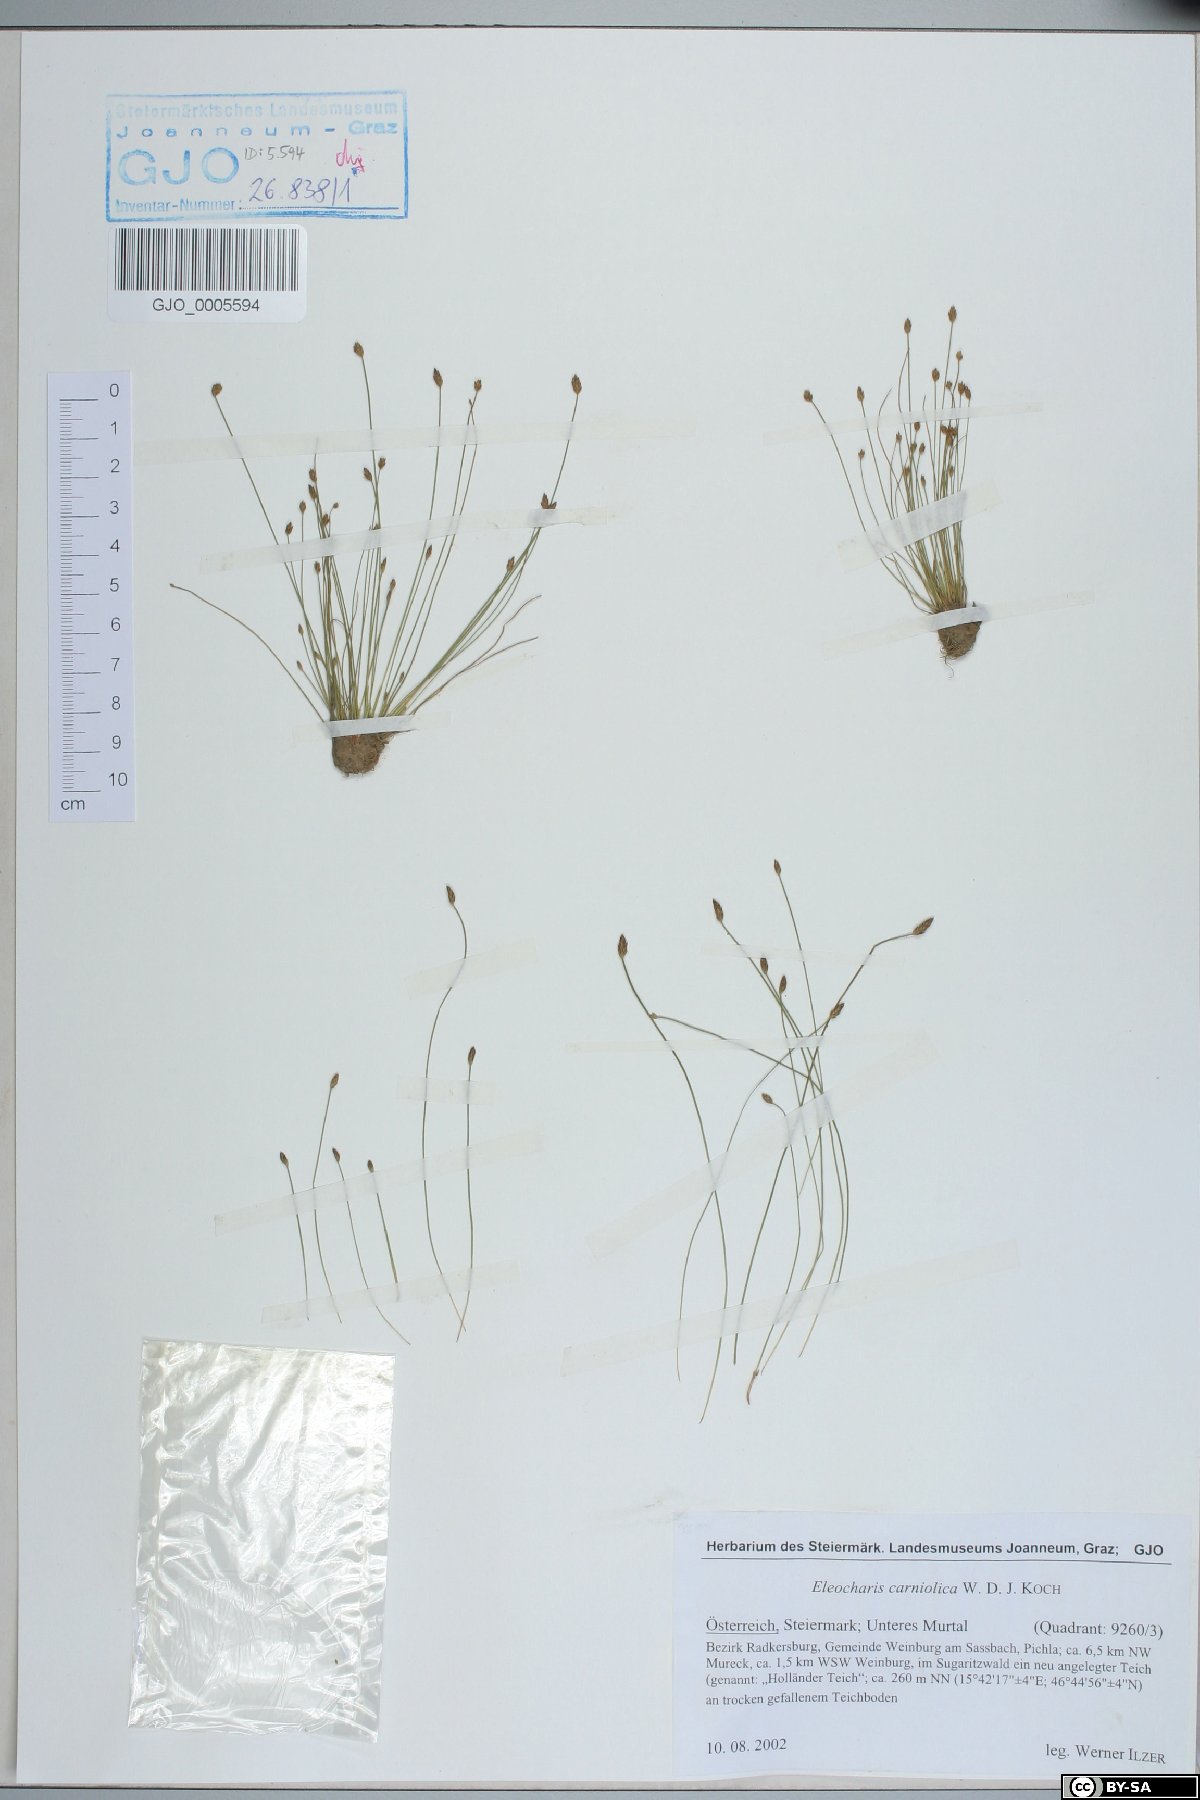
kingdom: Plantae
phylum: Tracheophyta
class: Liliopsida
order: Poales
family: Cyperaceae
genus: Eleocharis
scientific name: Eleocharis carniolica
